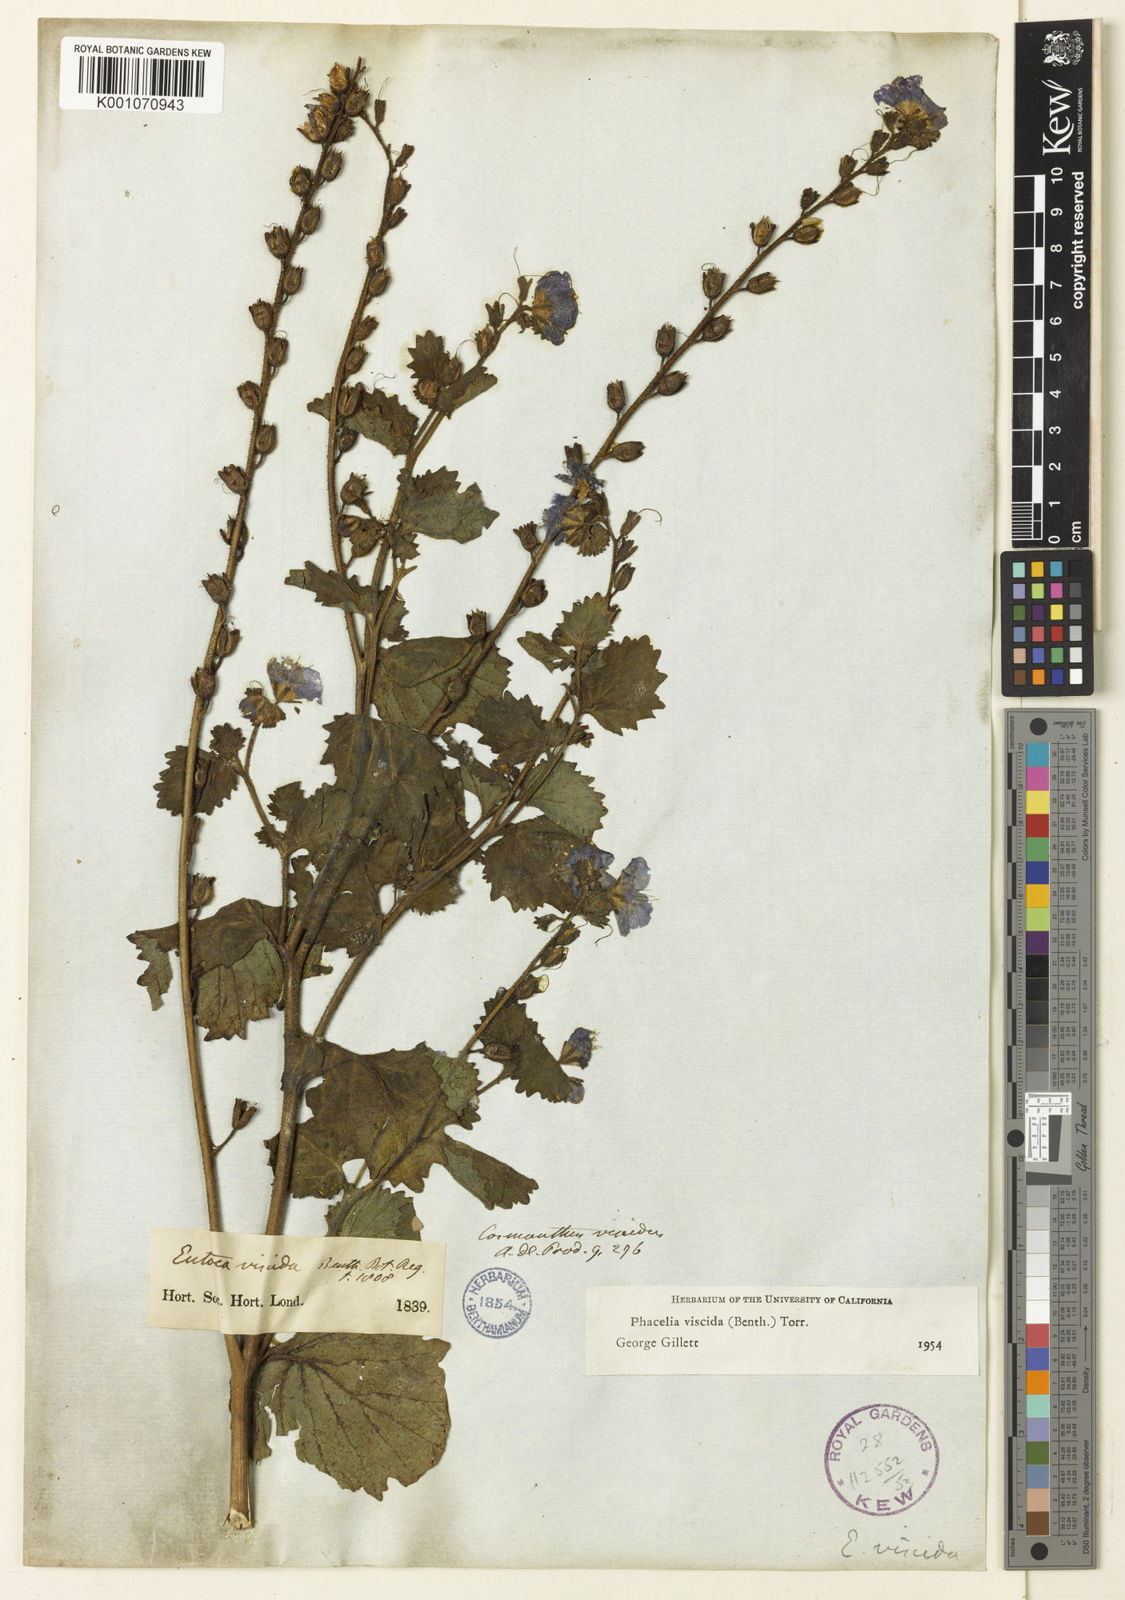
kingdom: Plantae
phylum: Tracheophyta
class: Magnoliopsida
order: Boraginales
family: Hydrophyllaceae
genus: Phacelia
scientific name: Phacelia viscida
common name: Sticky phacelia
